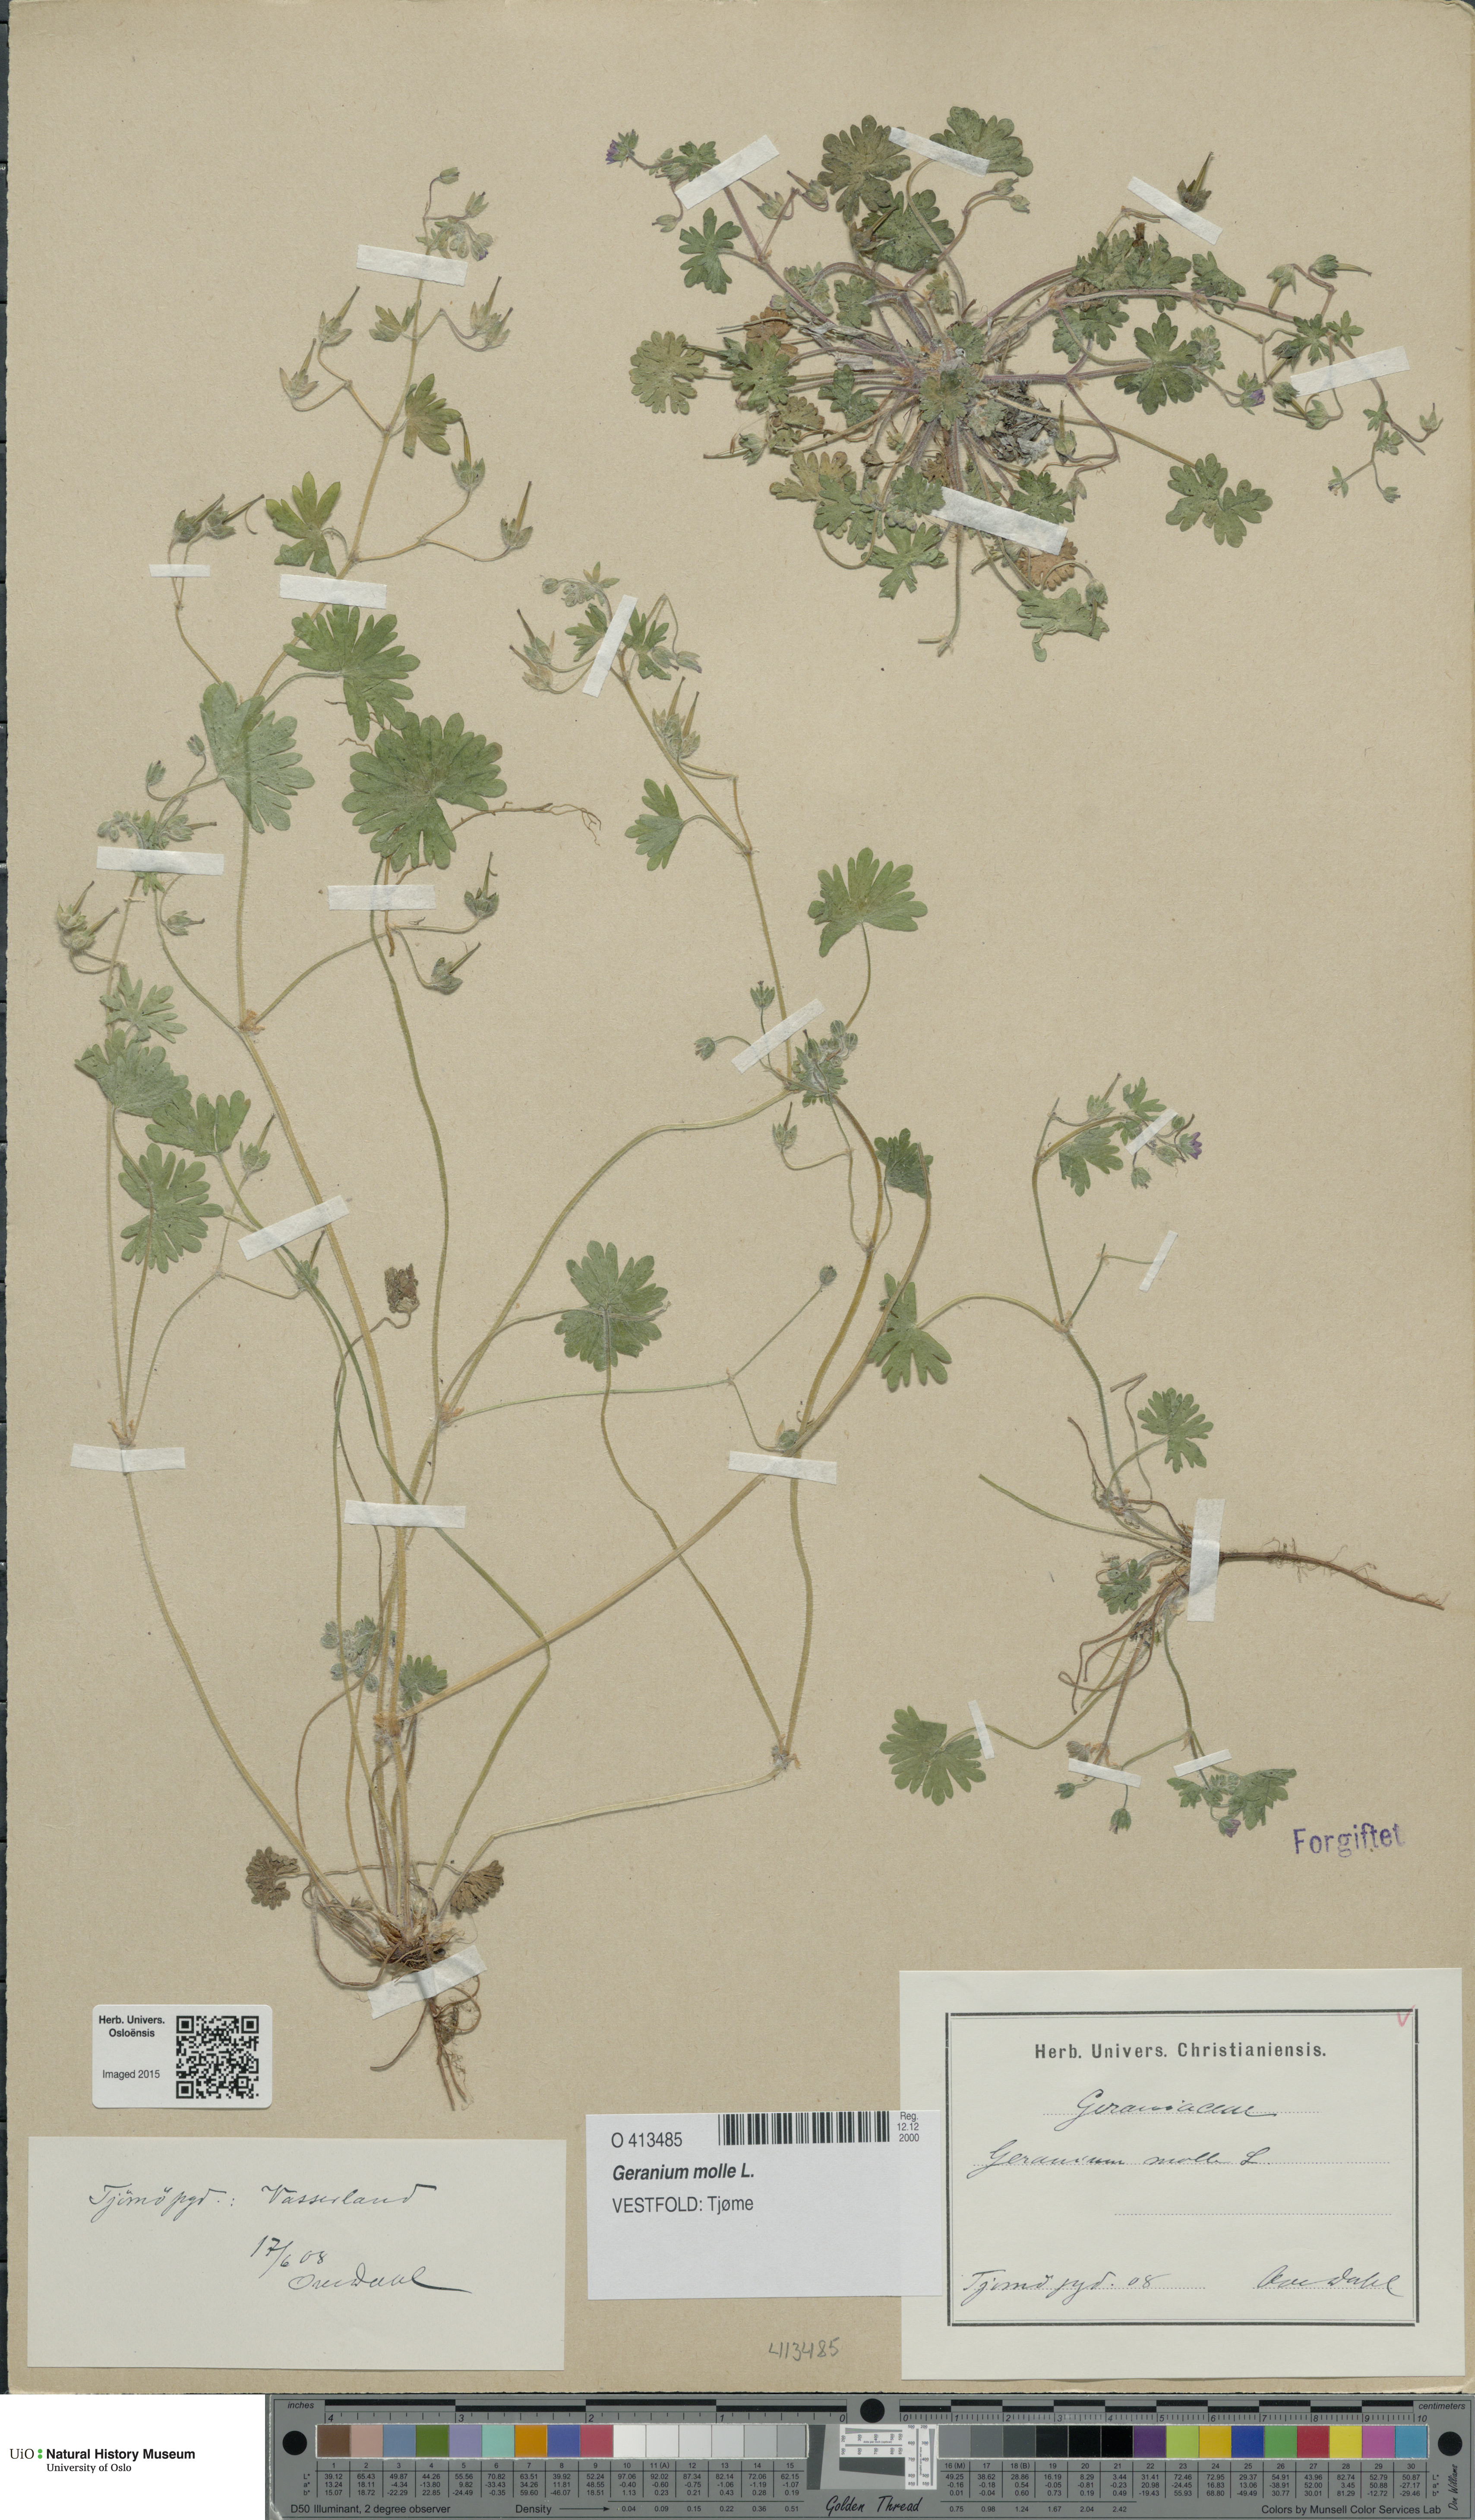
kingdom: Plantae
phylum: Tracheophyta
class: Magnoliopsida
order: Geraniales
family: Geraniaceae
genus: Geranium
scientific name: Geranium molle
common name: Dove's-foot crane's-bill
